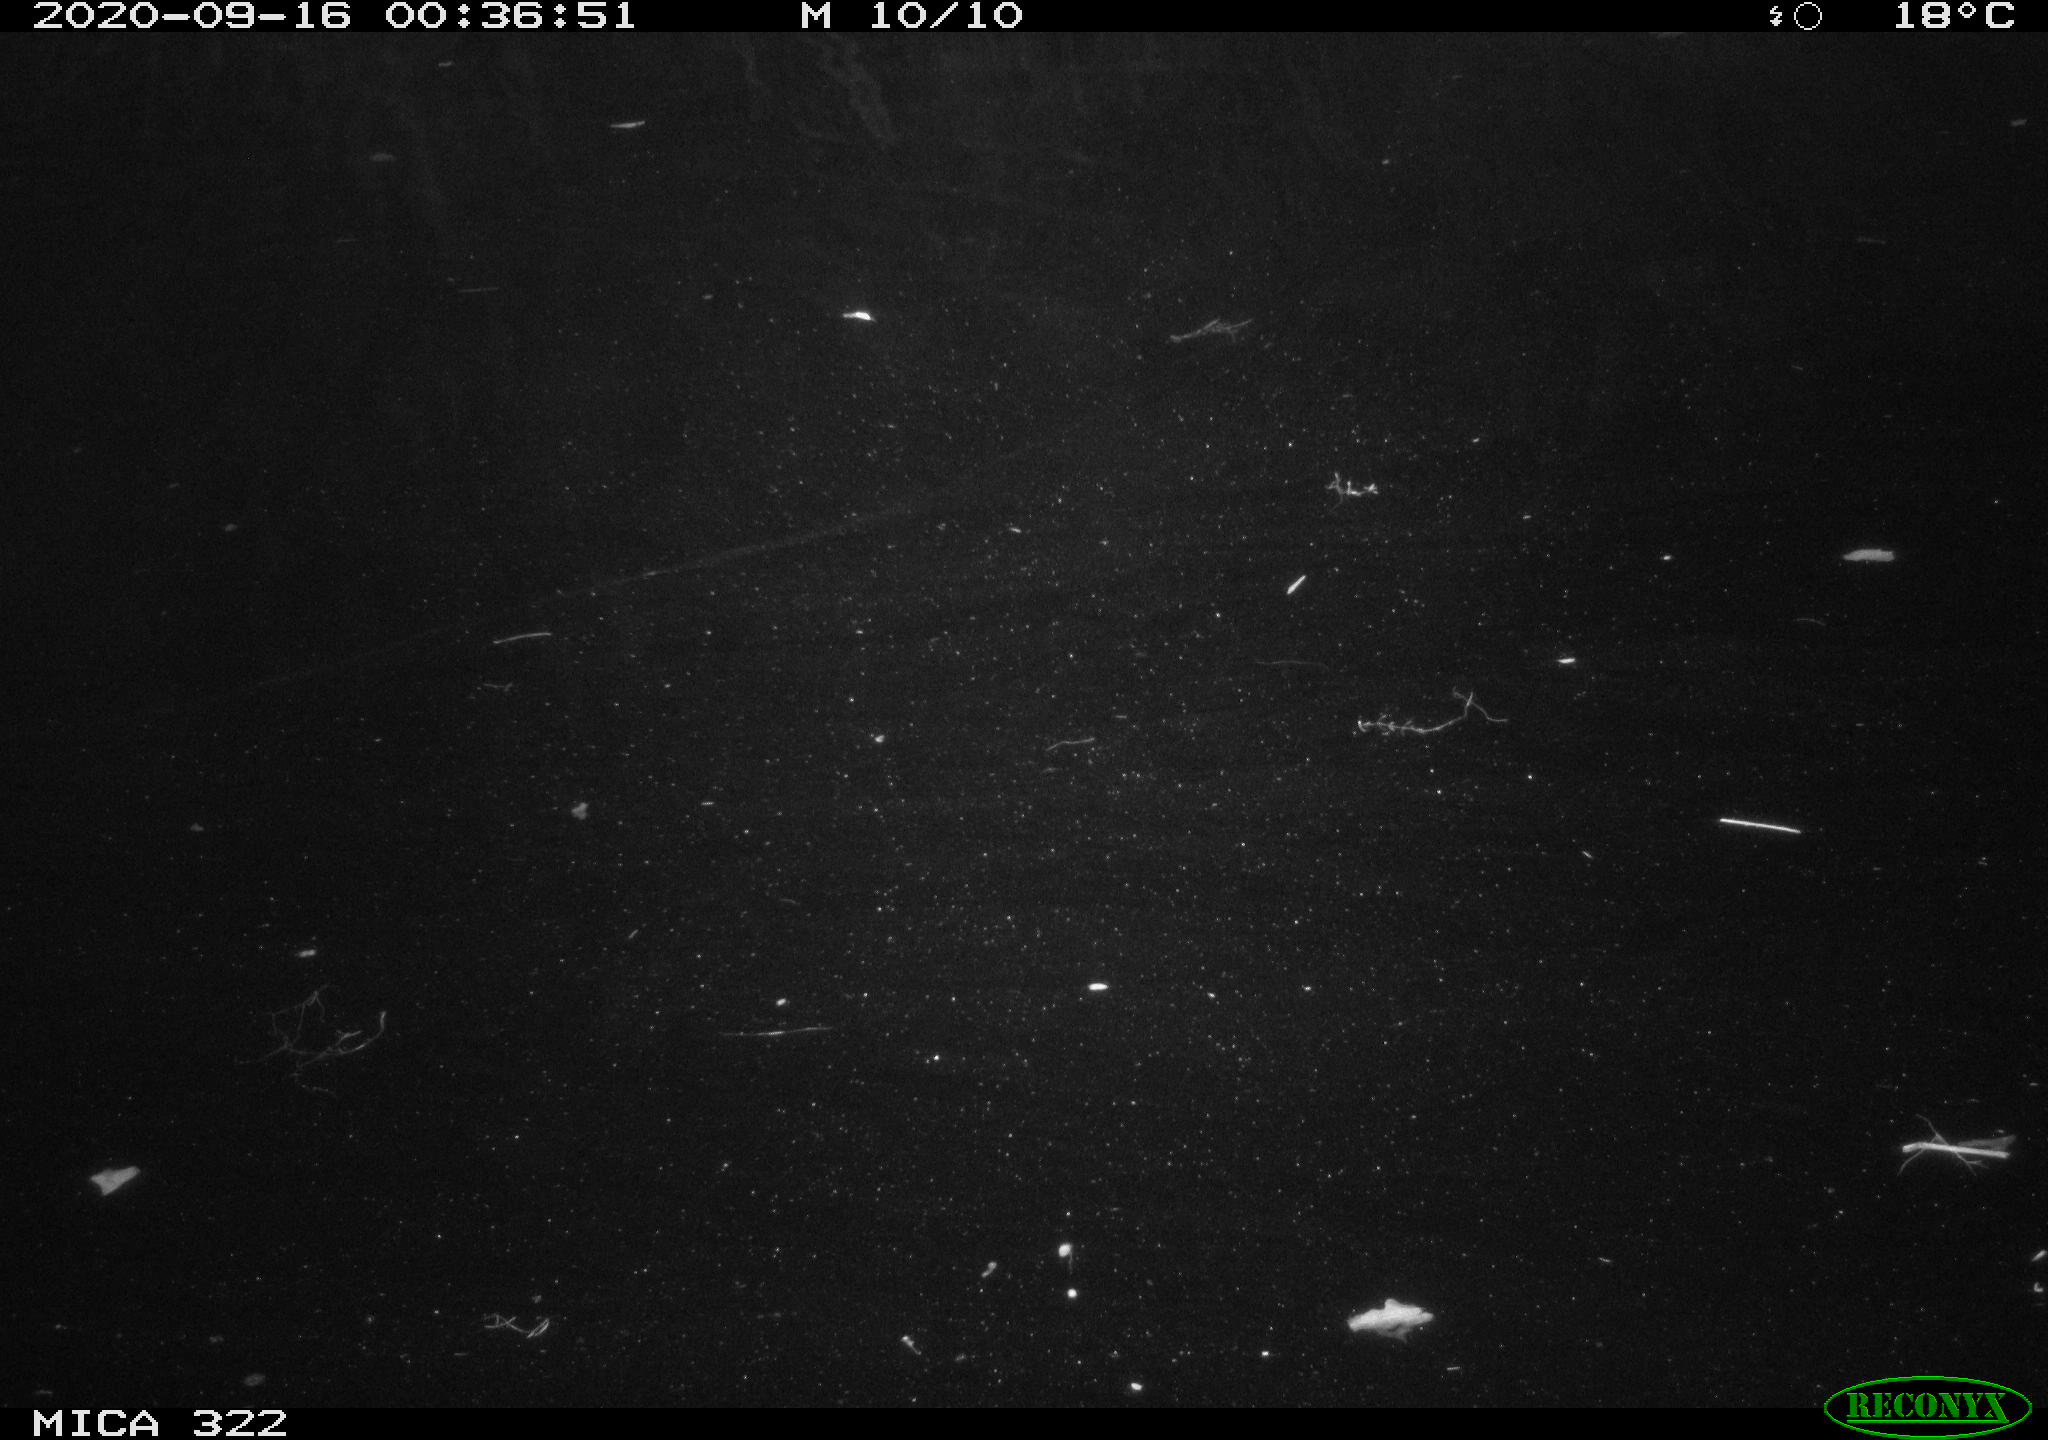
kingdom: Animalia
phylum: Chordata
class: Mammalia
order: Rodentia
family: Muridae
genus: Rattus
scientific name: Rattus norvegicus
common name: Brown rat
